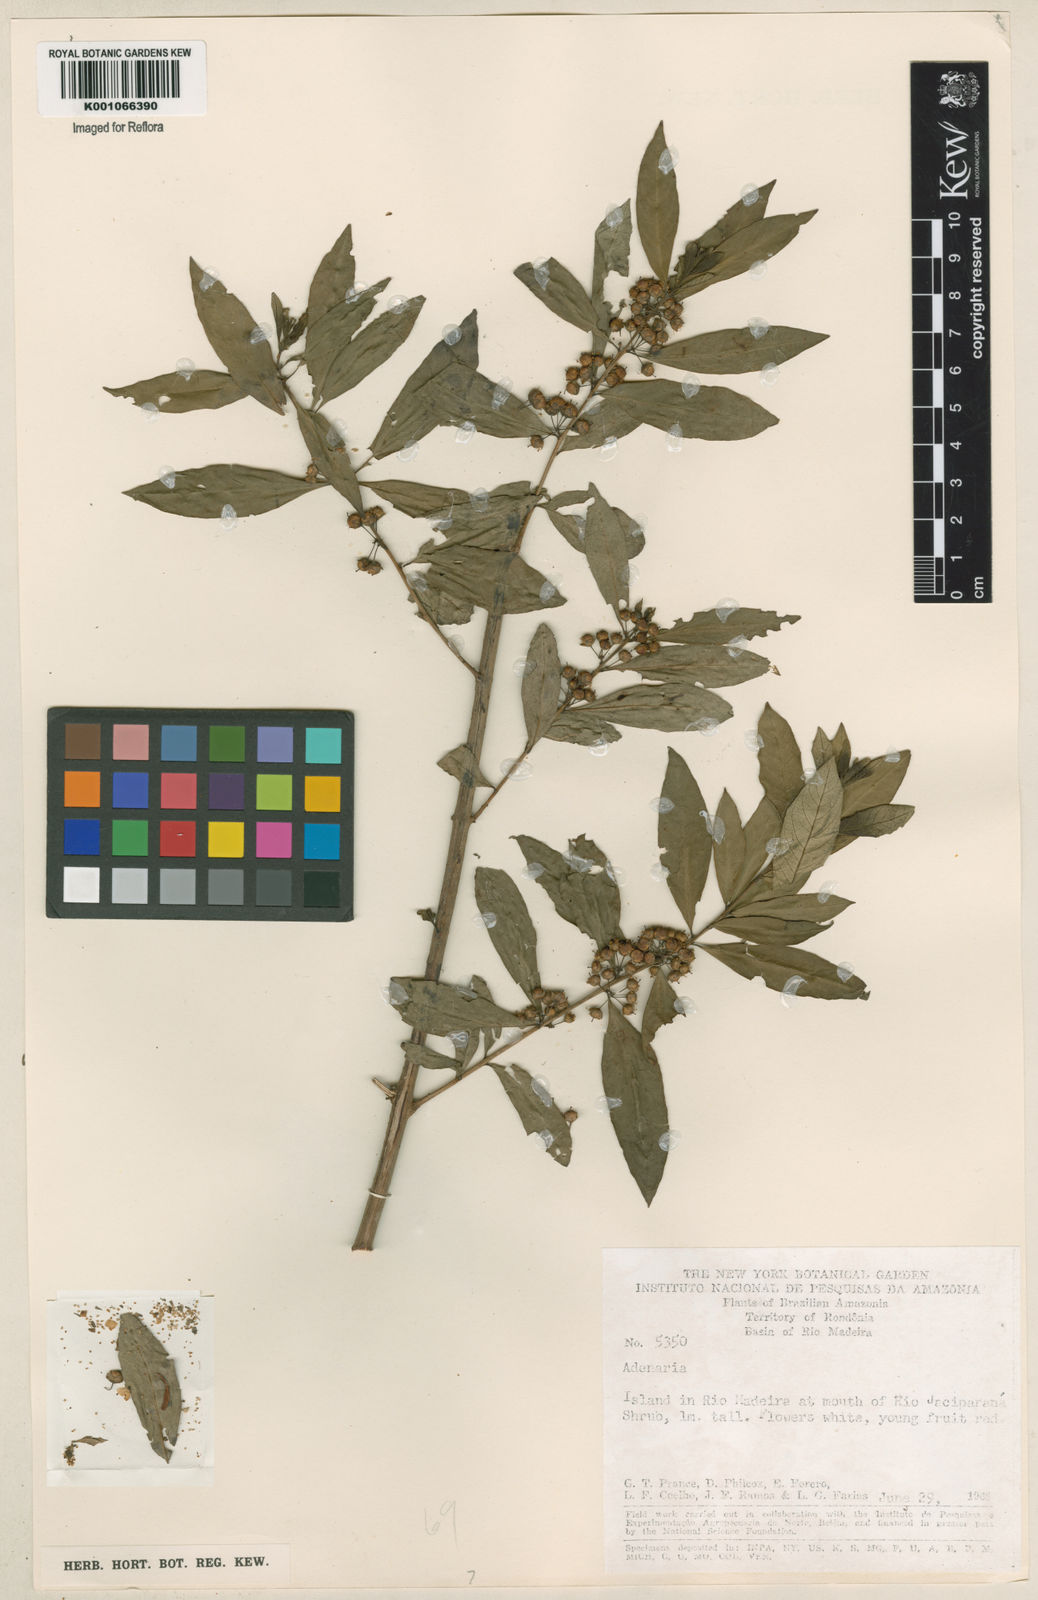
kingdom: Plantae
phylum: Tracheophyta
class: Magnoliopsida
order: Myrtales
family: Lythraceae
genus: Adenaria
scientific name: Adenaria floribunda
